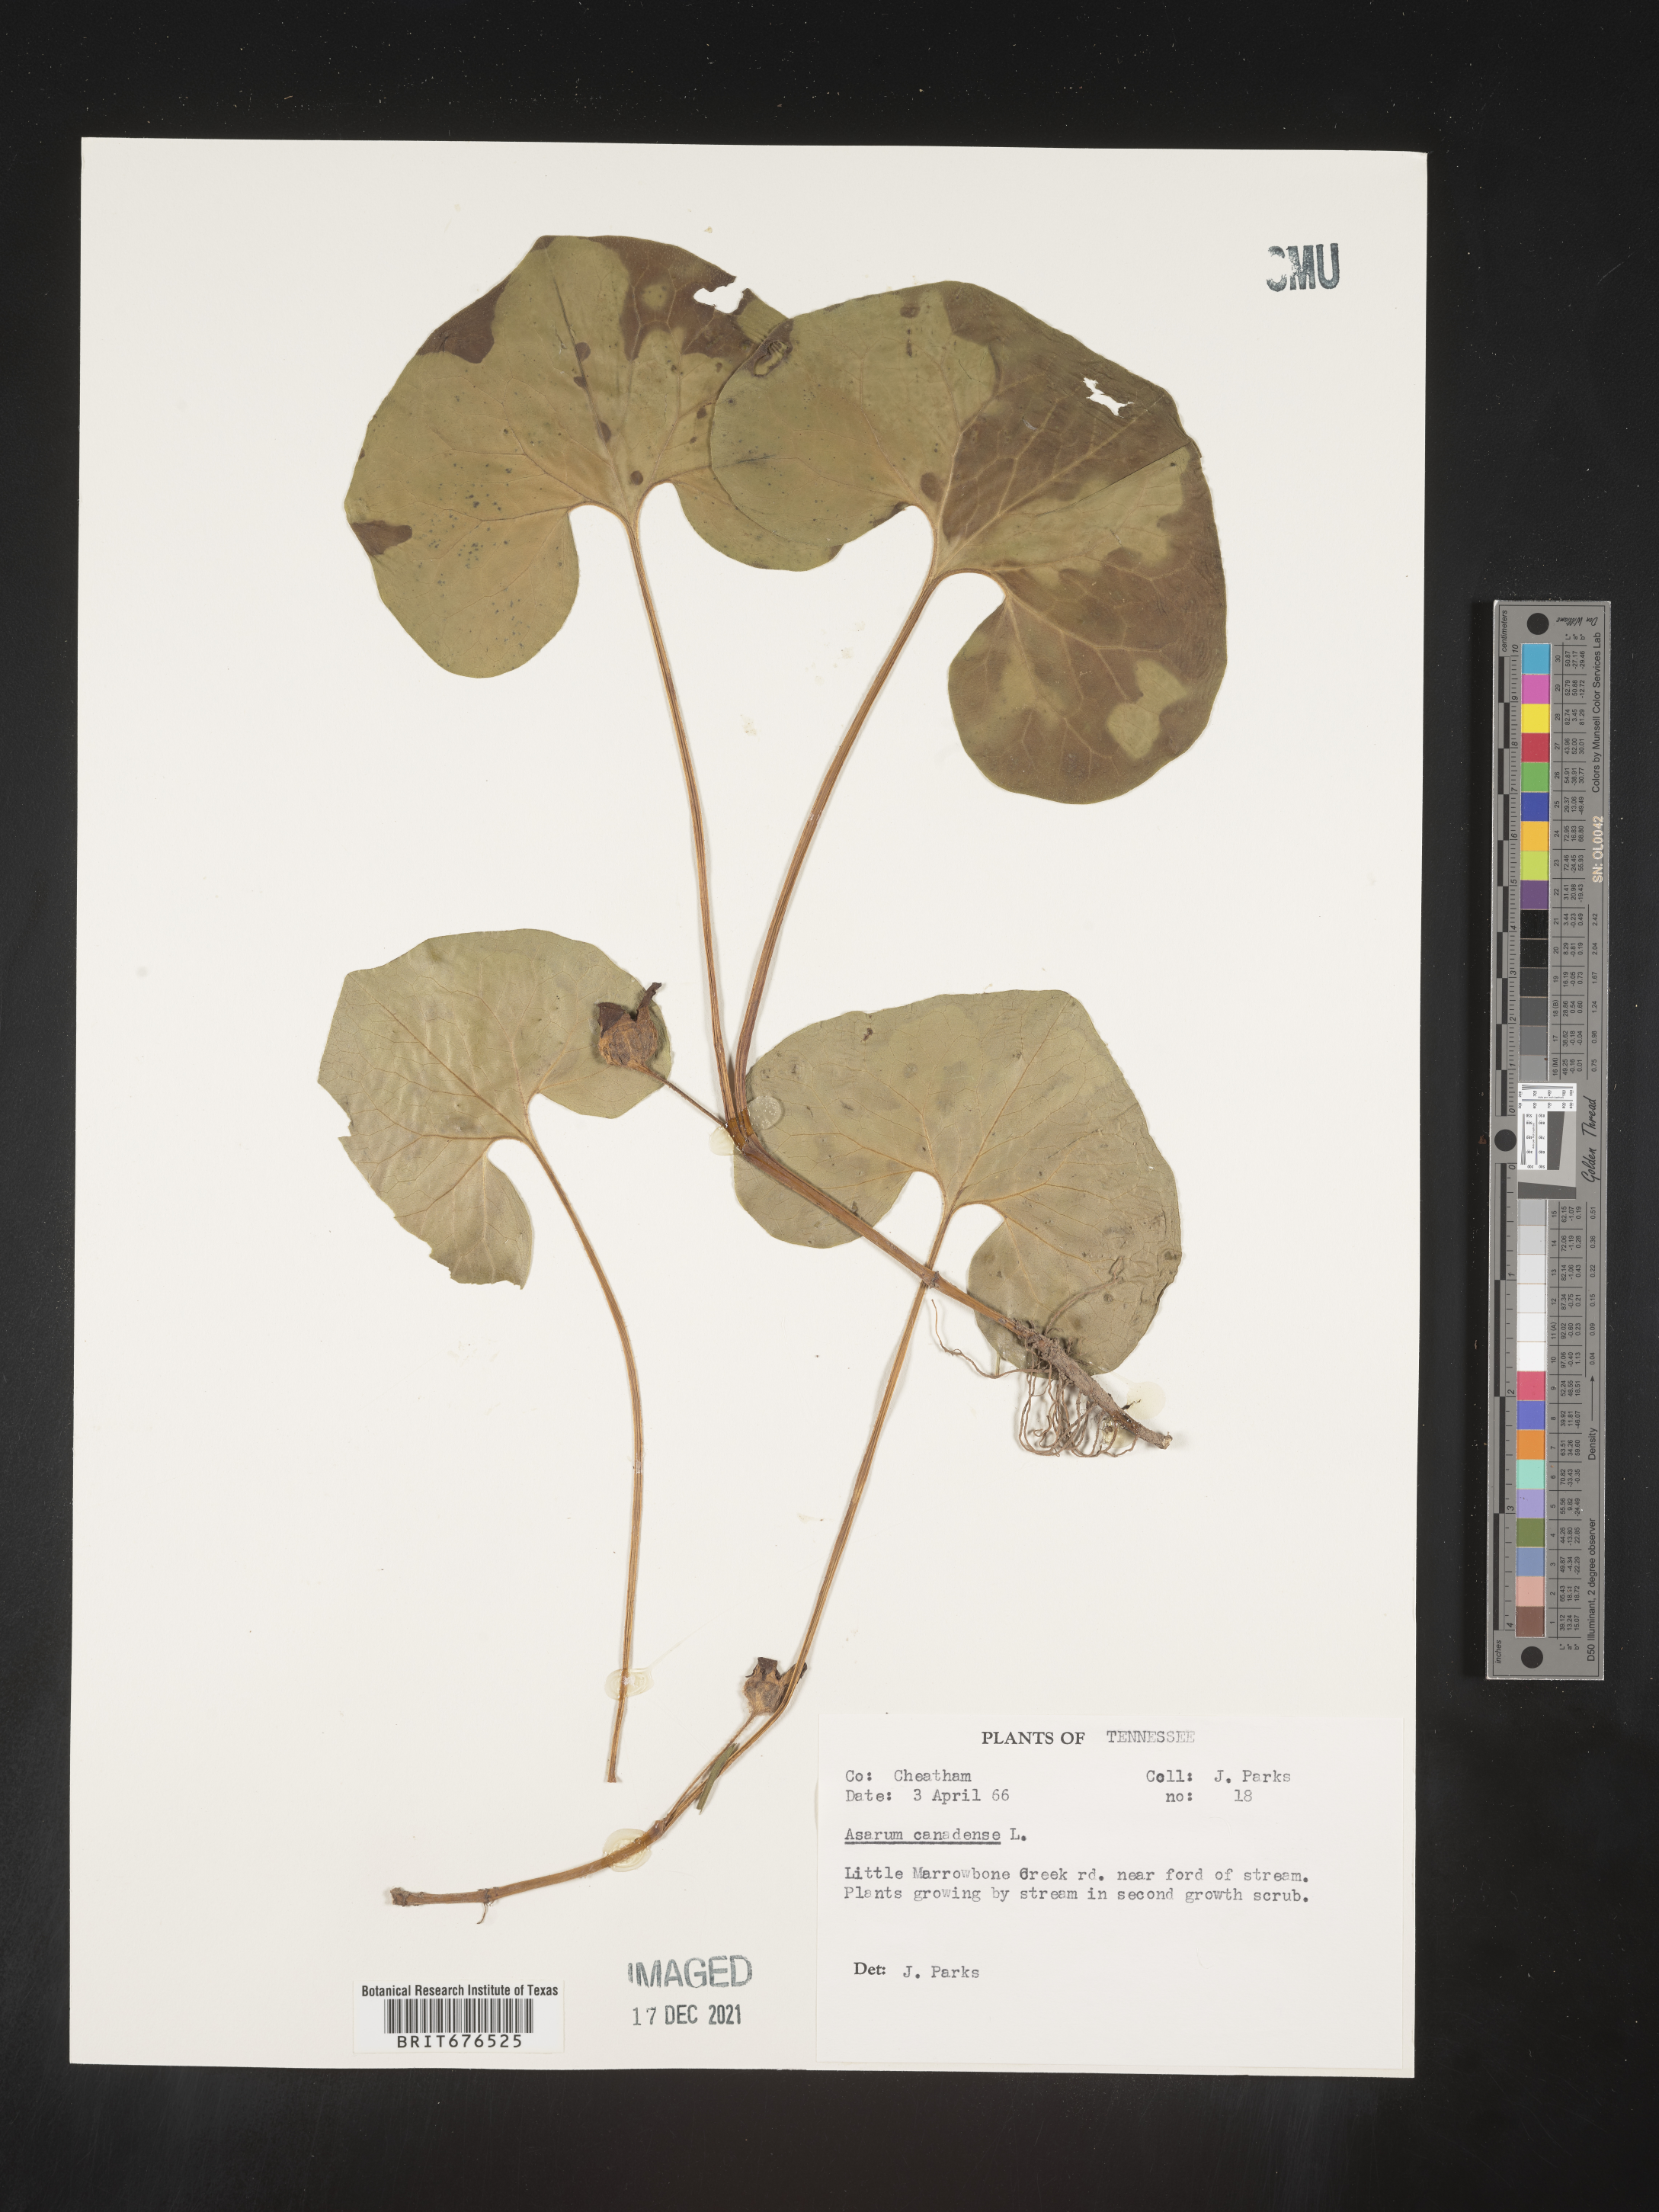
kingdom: Plantae
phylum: Tracheophyta
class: Magnoliopsida
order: Piperales
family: Aristolochiaceae
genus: Asarum
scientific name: Asarum canadense
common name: Wild ginger
